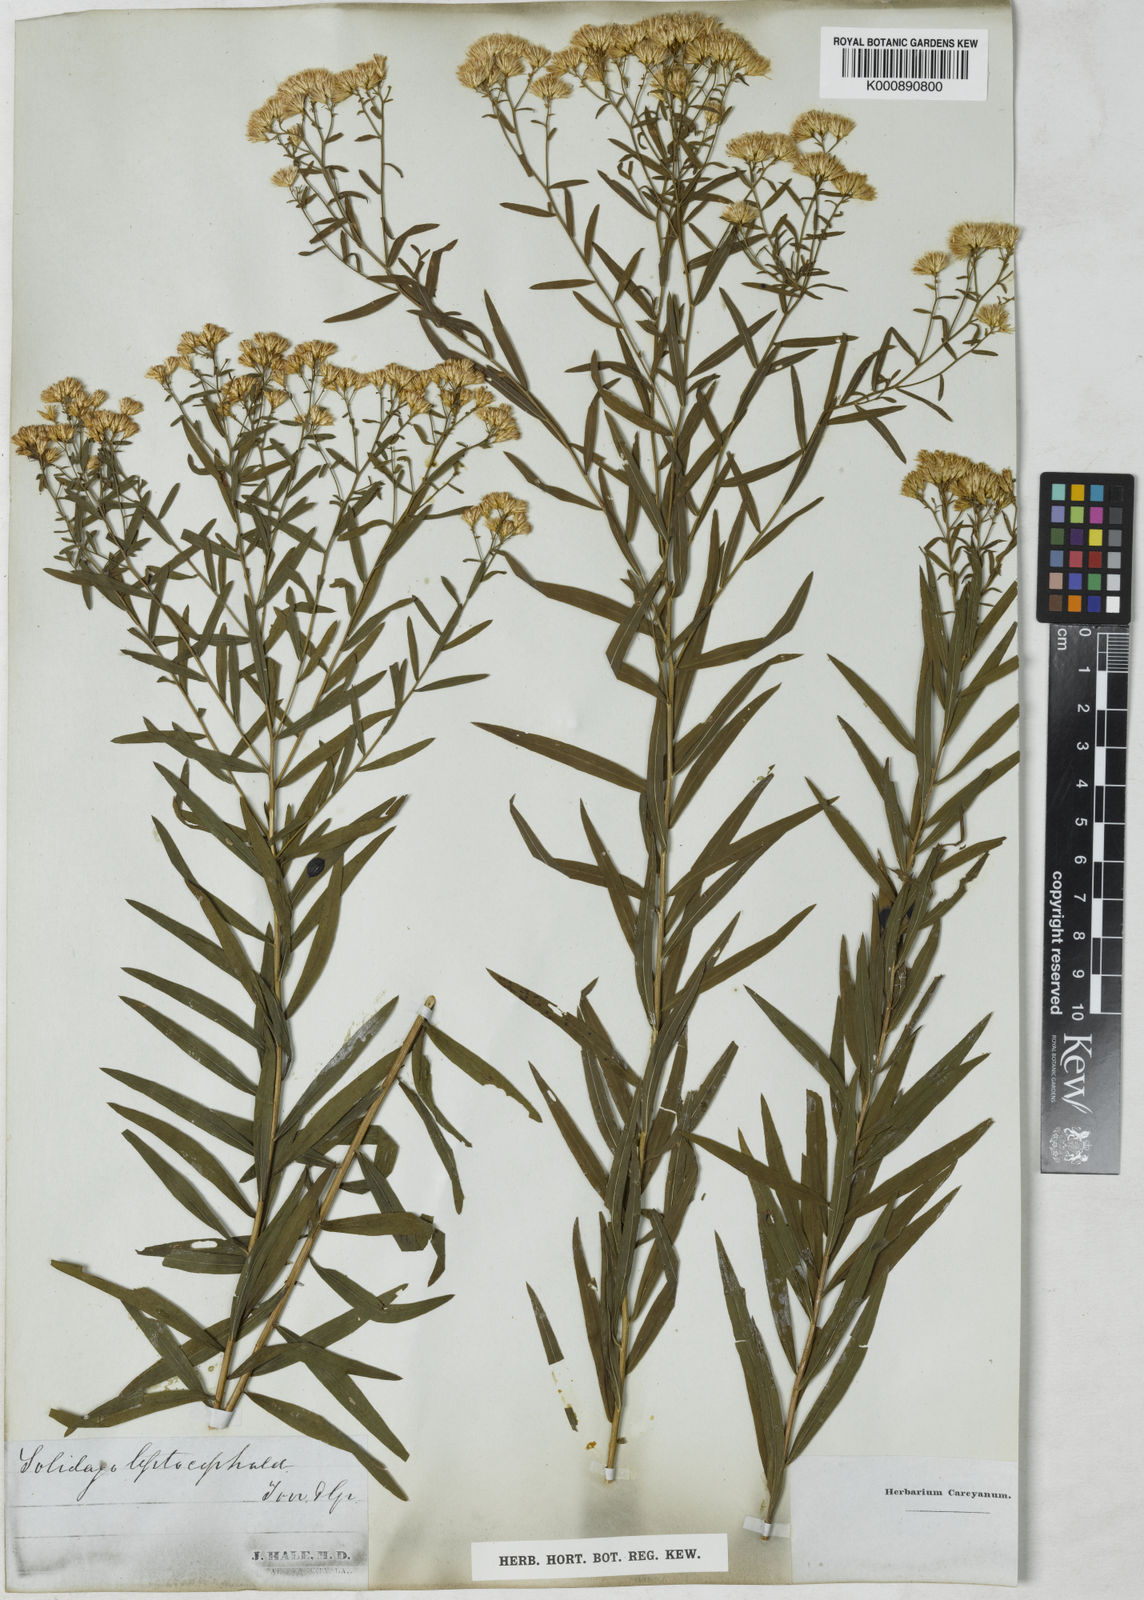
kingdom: Plantae
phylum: Tracheophyta
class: Magnoliopsida
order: Asterales
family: Asteraceae
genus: Euthamia
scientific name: Euthamia leptocephala
